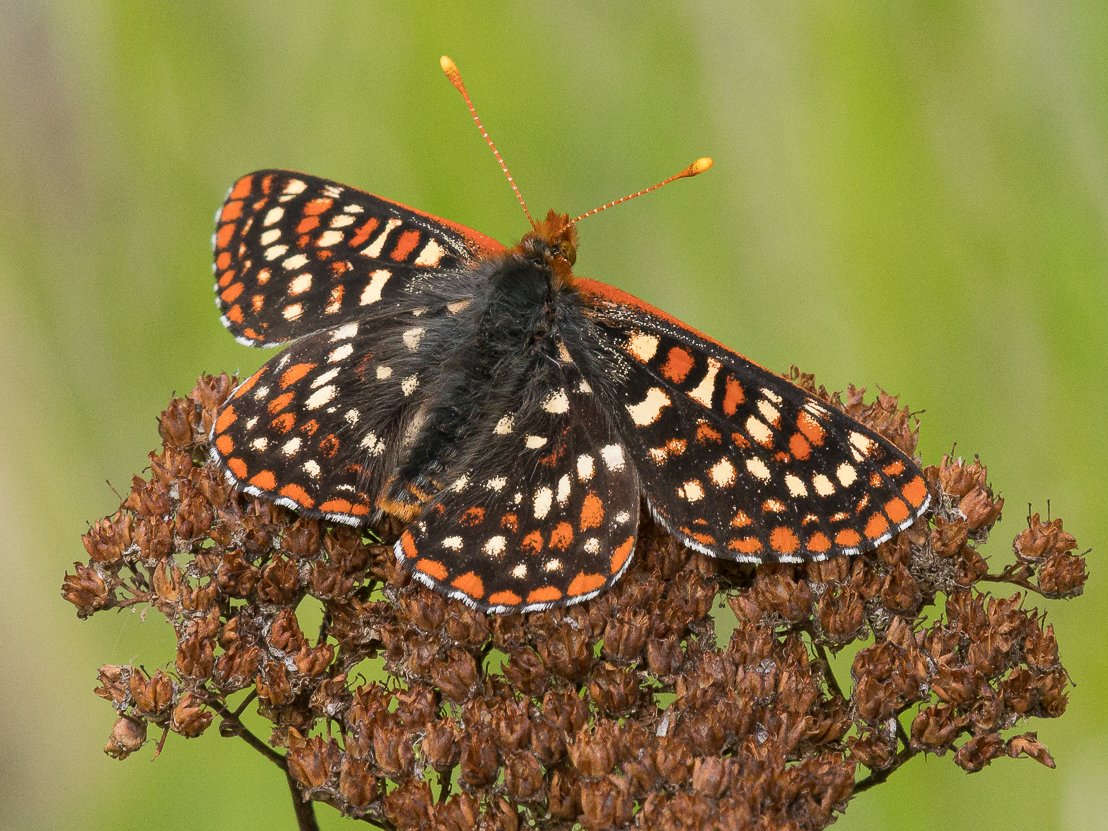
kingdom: Animalia
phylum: Arthropoda
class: Insecta
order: Lepidoptera
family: Nymphalidae
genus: Occidryas
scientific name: Occidryas anicia
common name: Anicia Checkerspot
